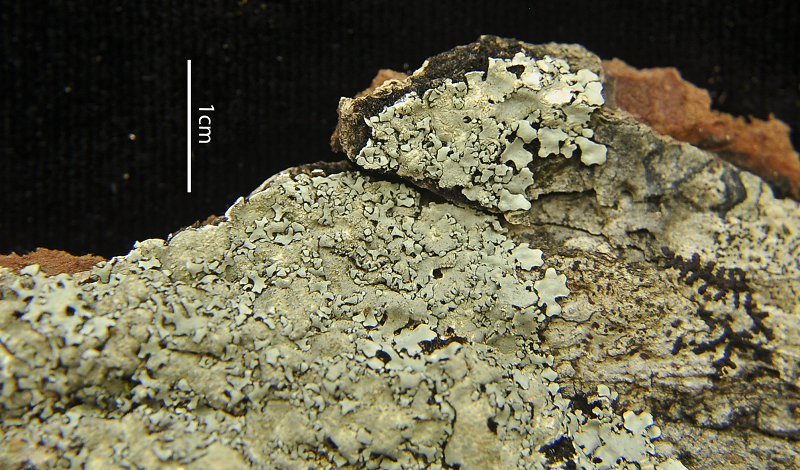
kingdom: Fungi
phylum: Ascomycota
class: Lecanoromycetes
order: Lecanorales
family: Parmeliaceae
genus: Bulbothrix
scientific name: Bulbothrix isidiza
